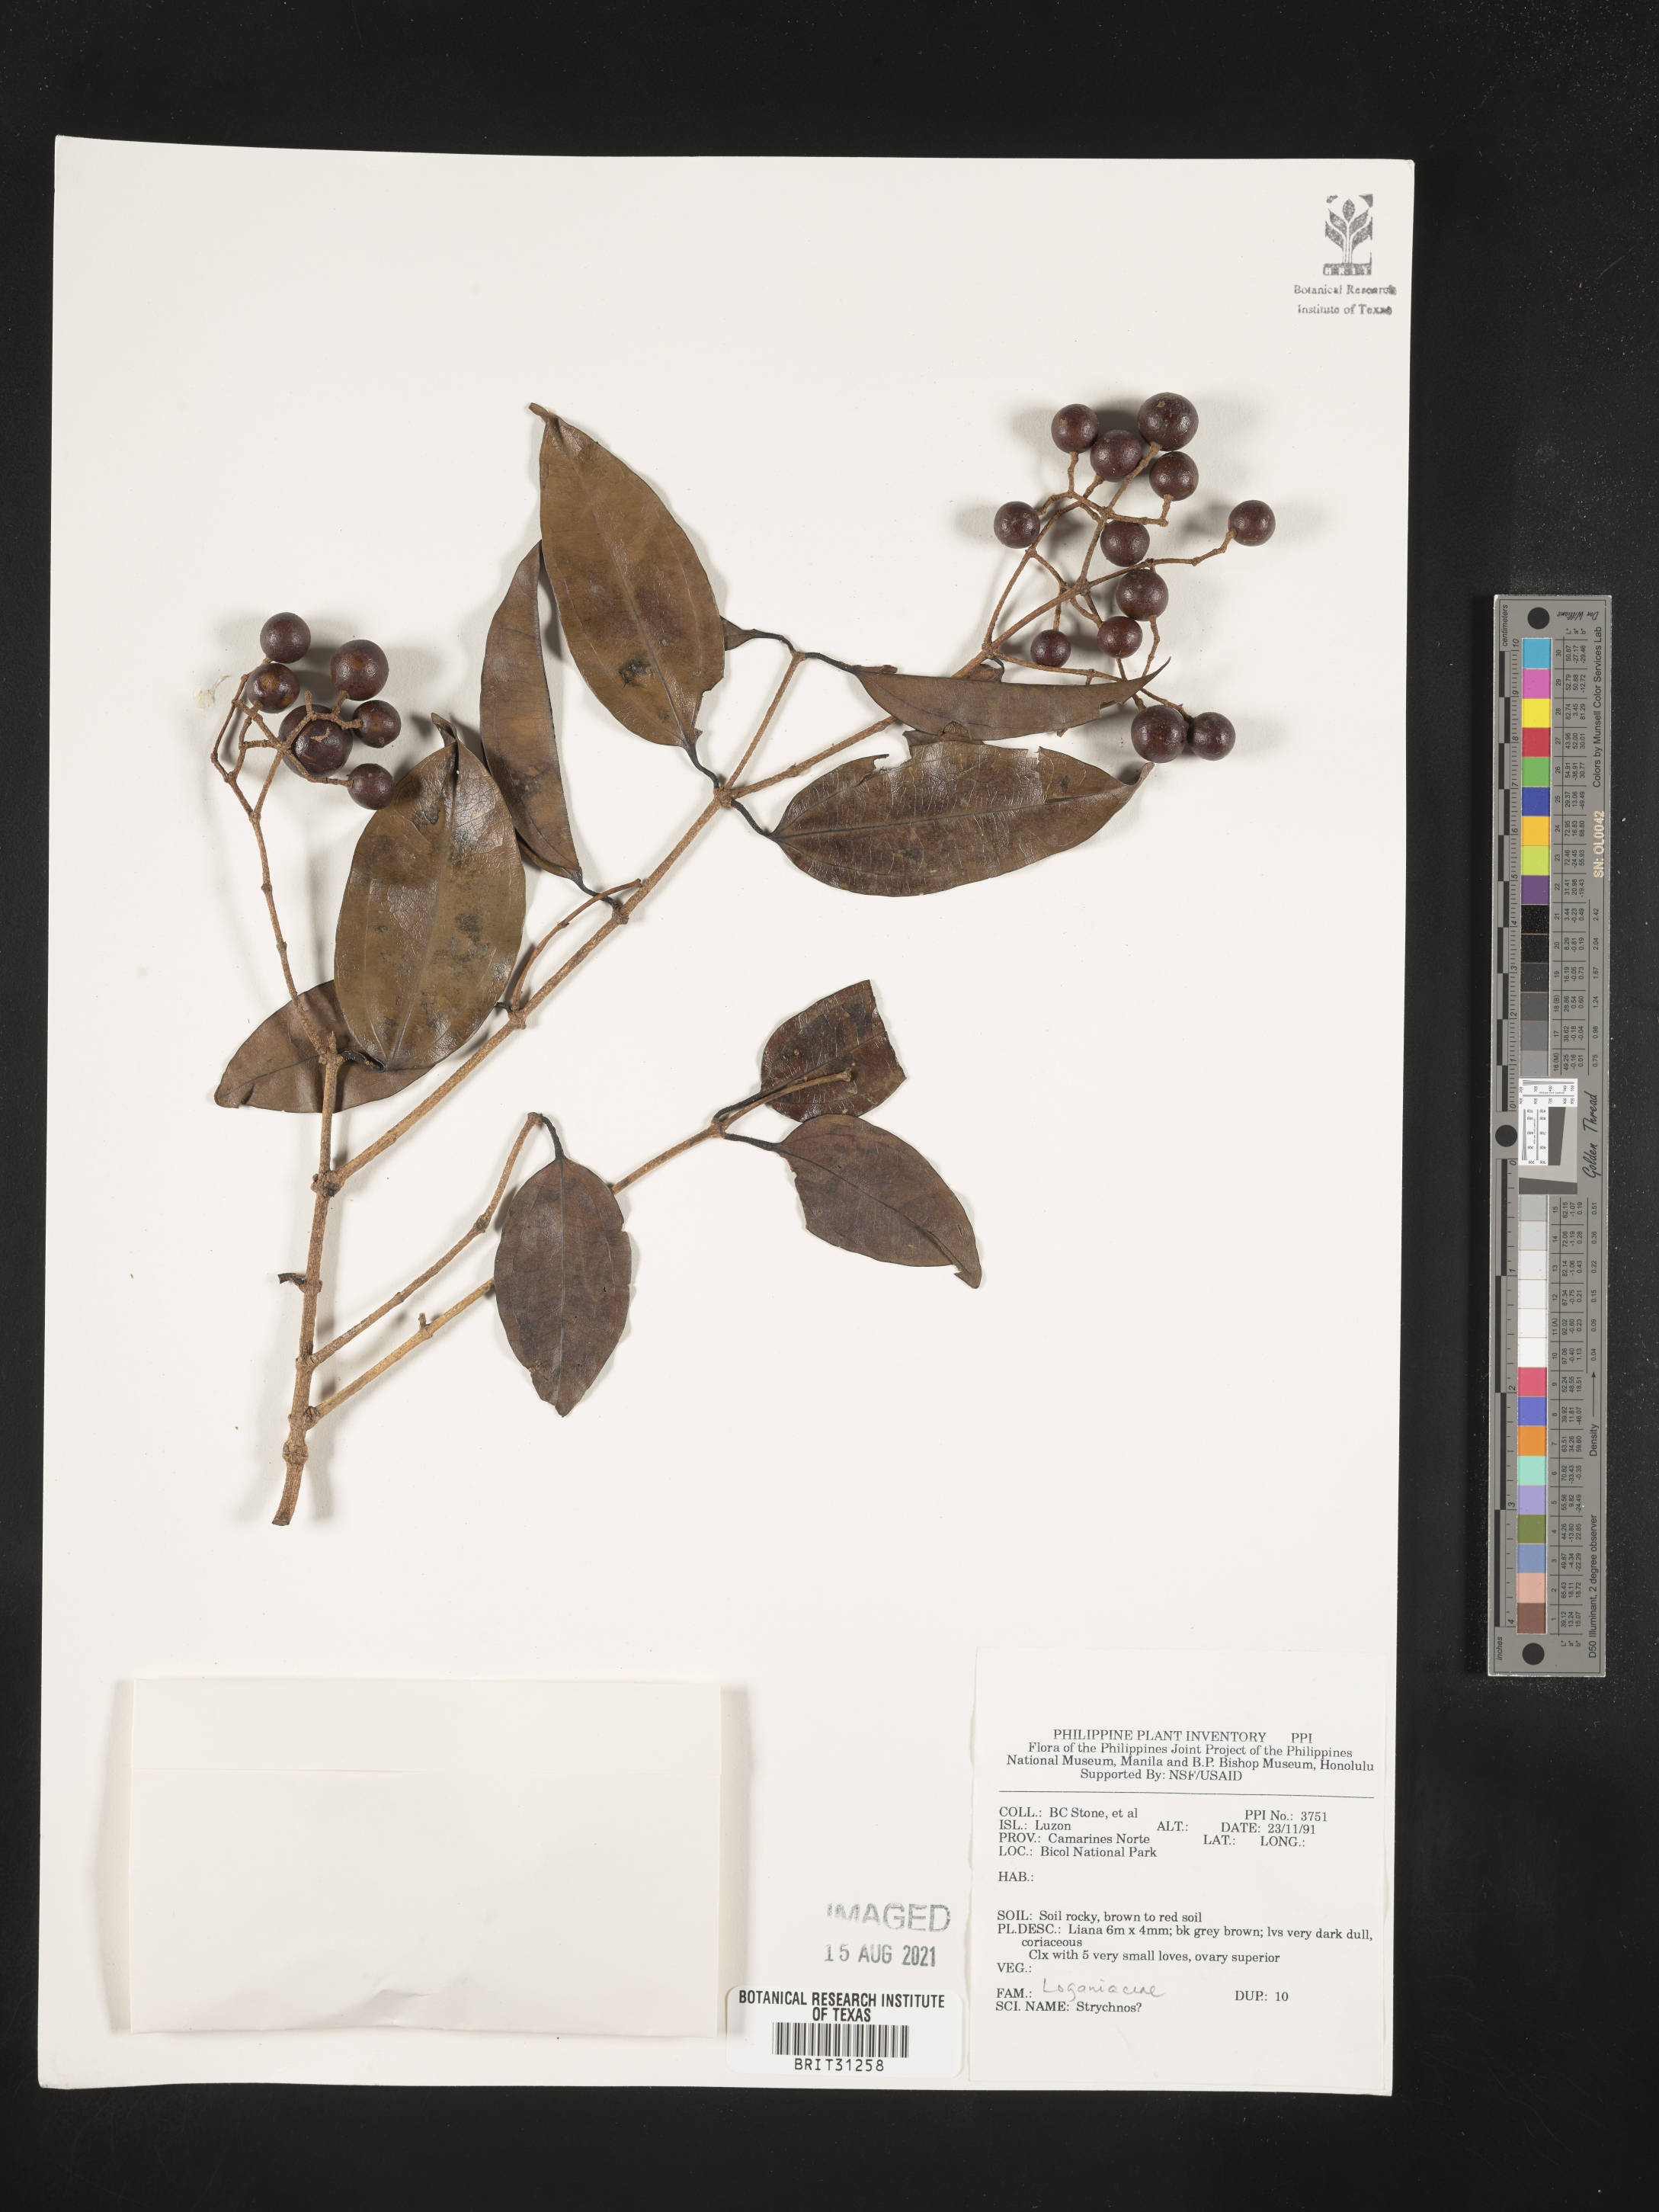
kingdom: Plantae
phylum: Tracheophyta
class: Magnoliopsida
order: Gentianales
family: Loganiaceae
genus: Strychnos
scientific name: Strychnos
